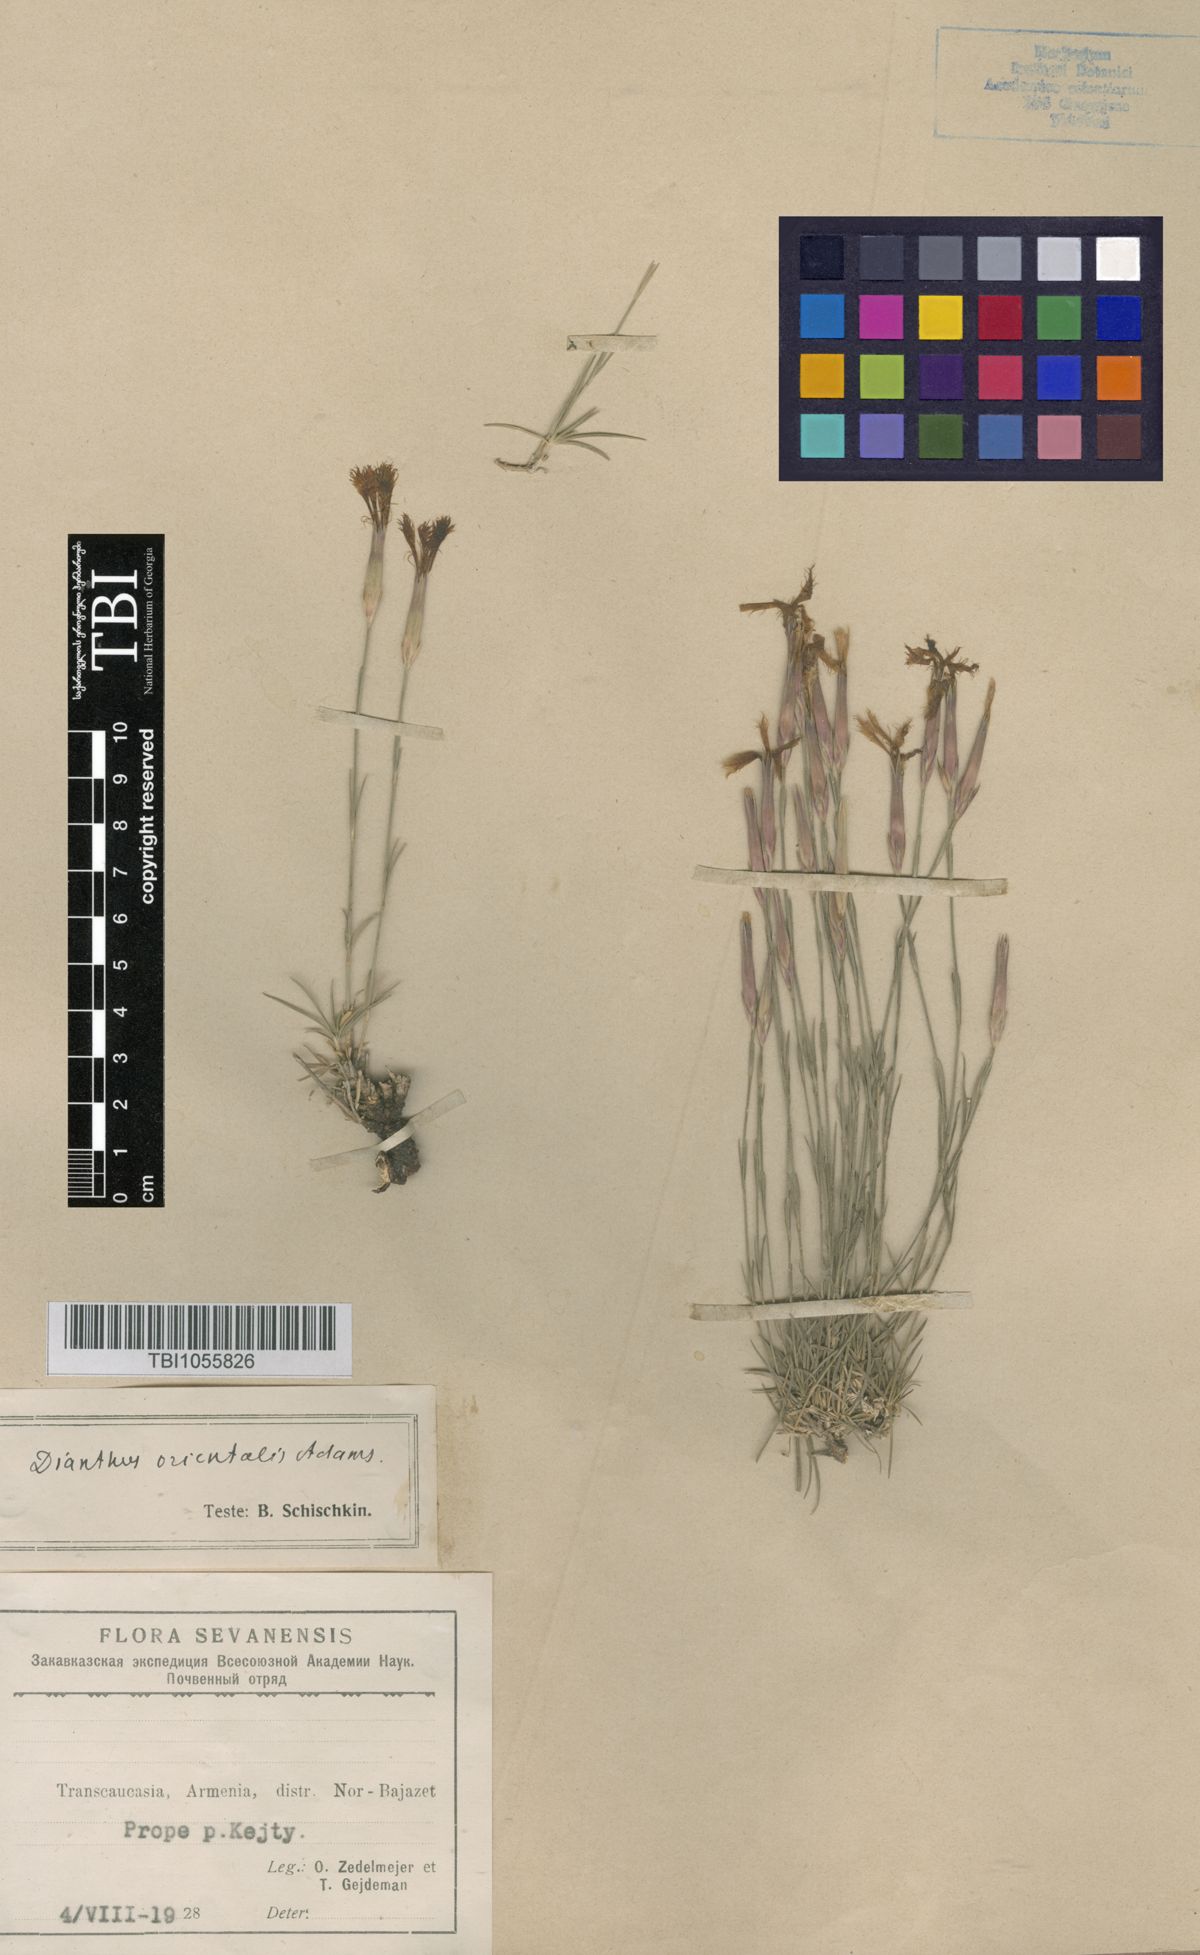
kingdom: Plantae
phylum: Tracheophyta
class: Magnoliopsida
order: Caryophyllales
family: Caryophyllaceae
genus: Dianthus
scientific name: Dianthus orientalis
